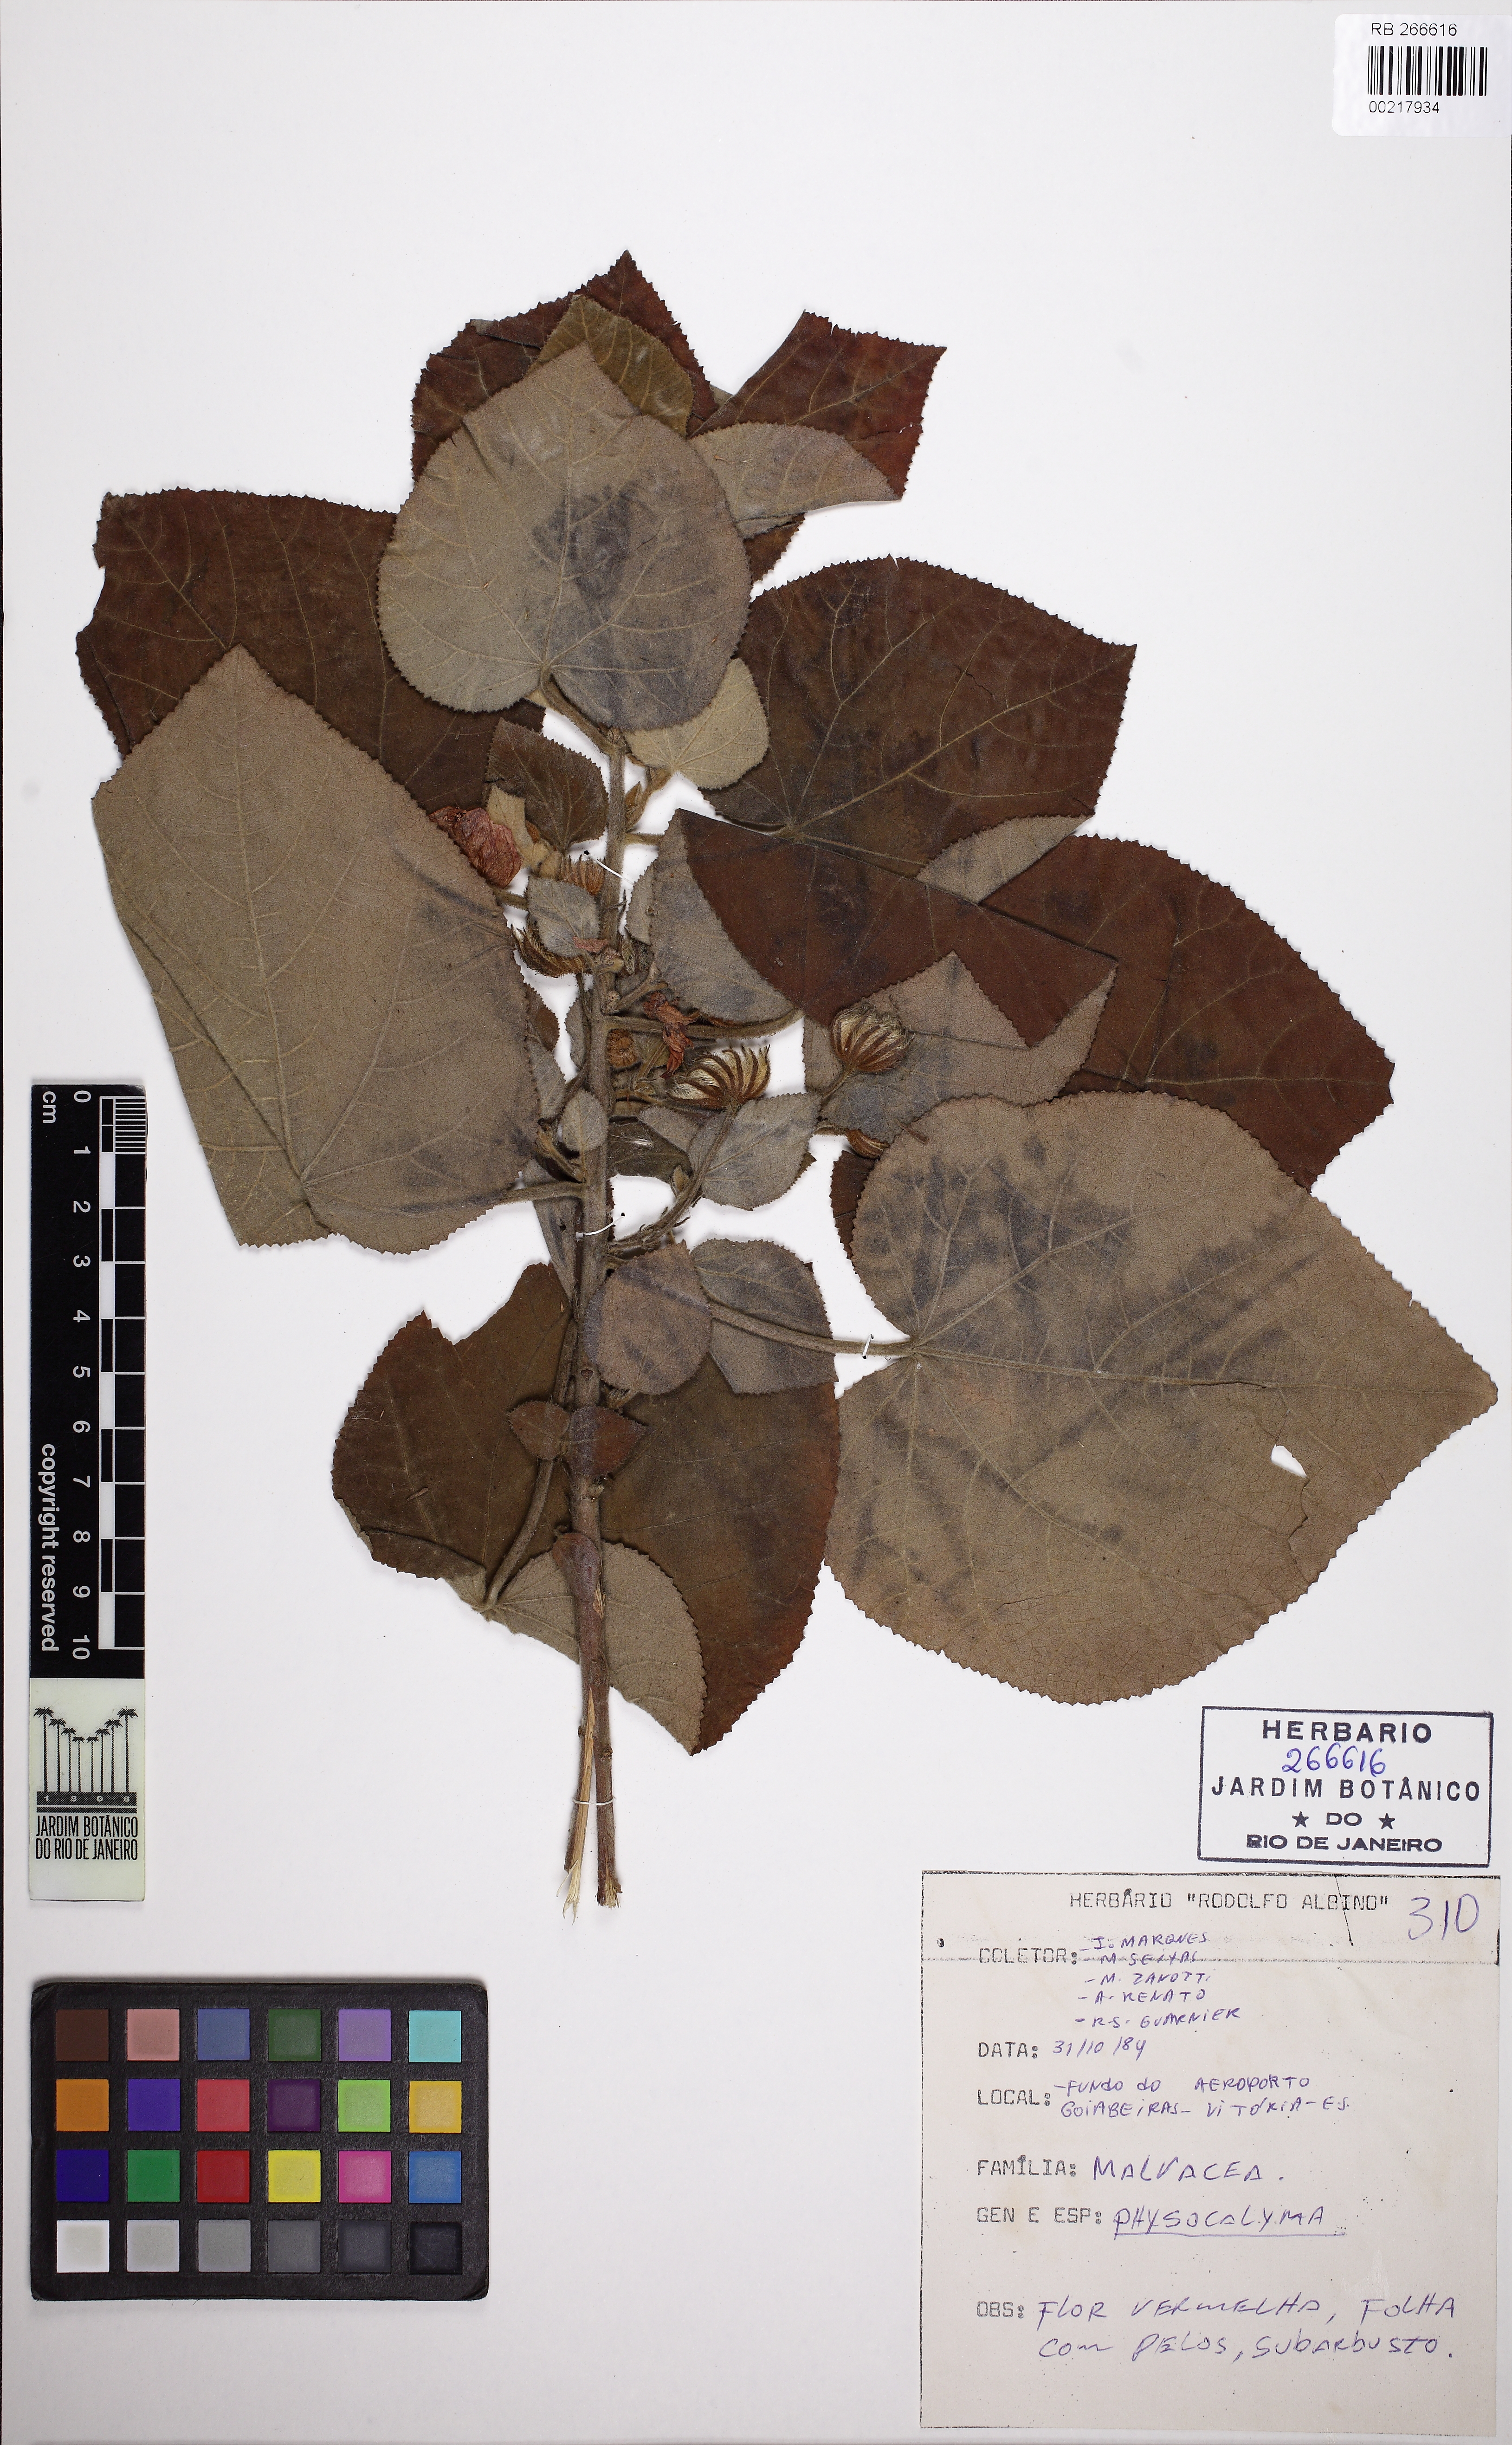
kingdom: Plantae
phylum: Tracheophyta
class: Magnoliopsida
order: Malvales
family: Malvaceae
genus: Pavonia
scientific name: Pavonia malacophylla
